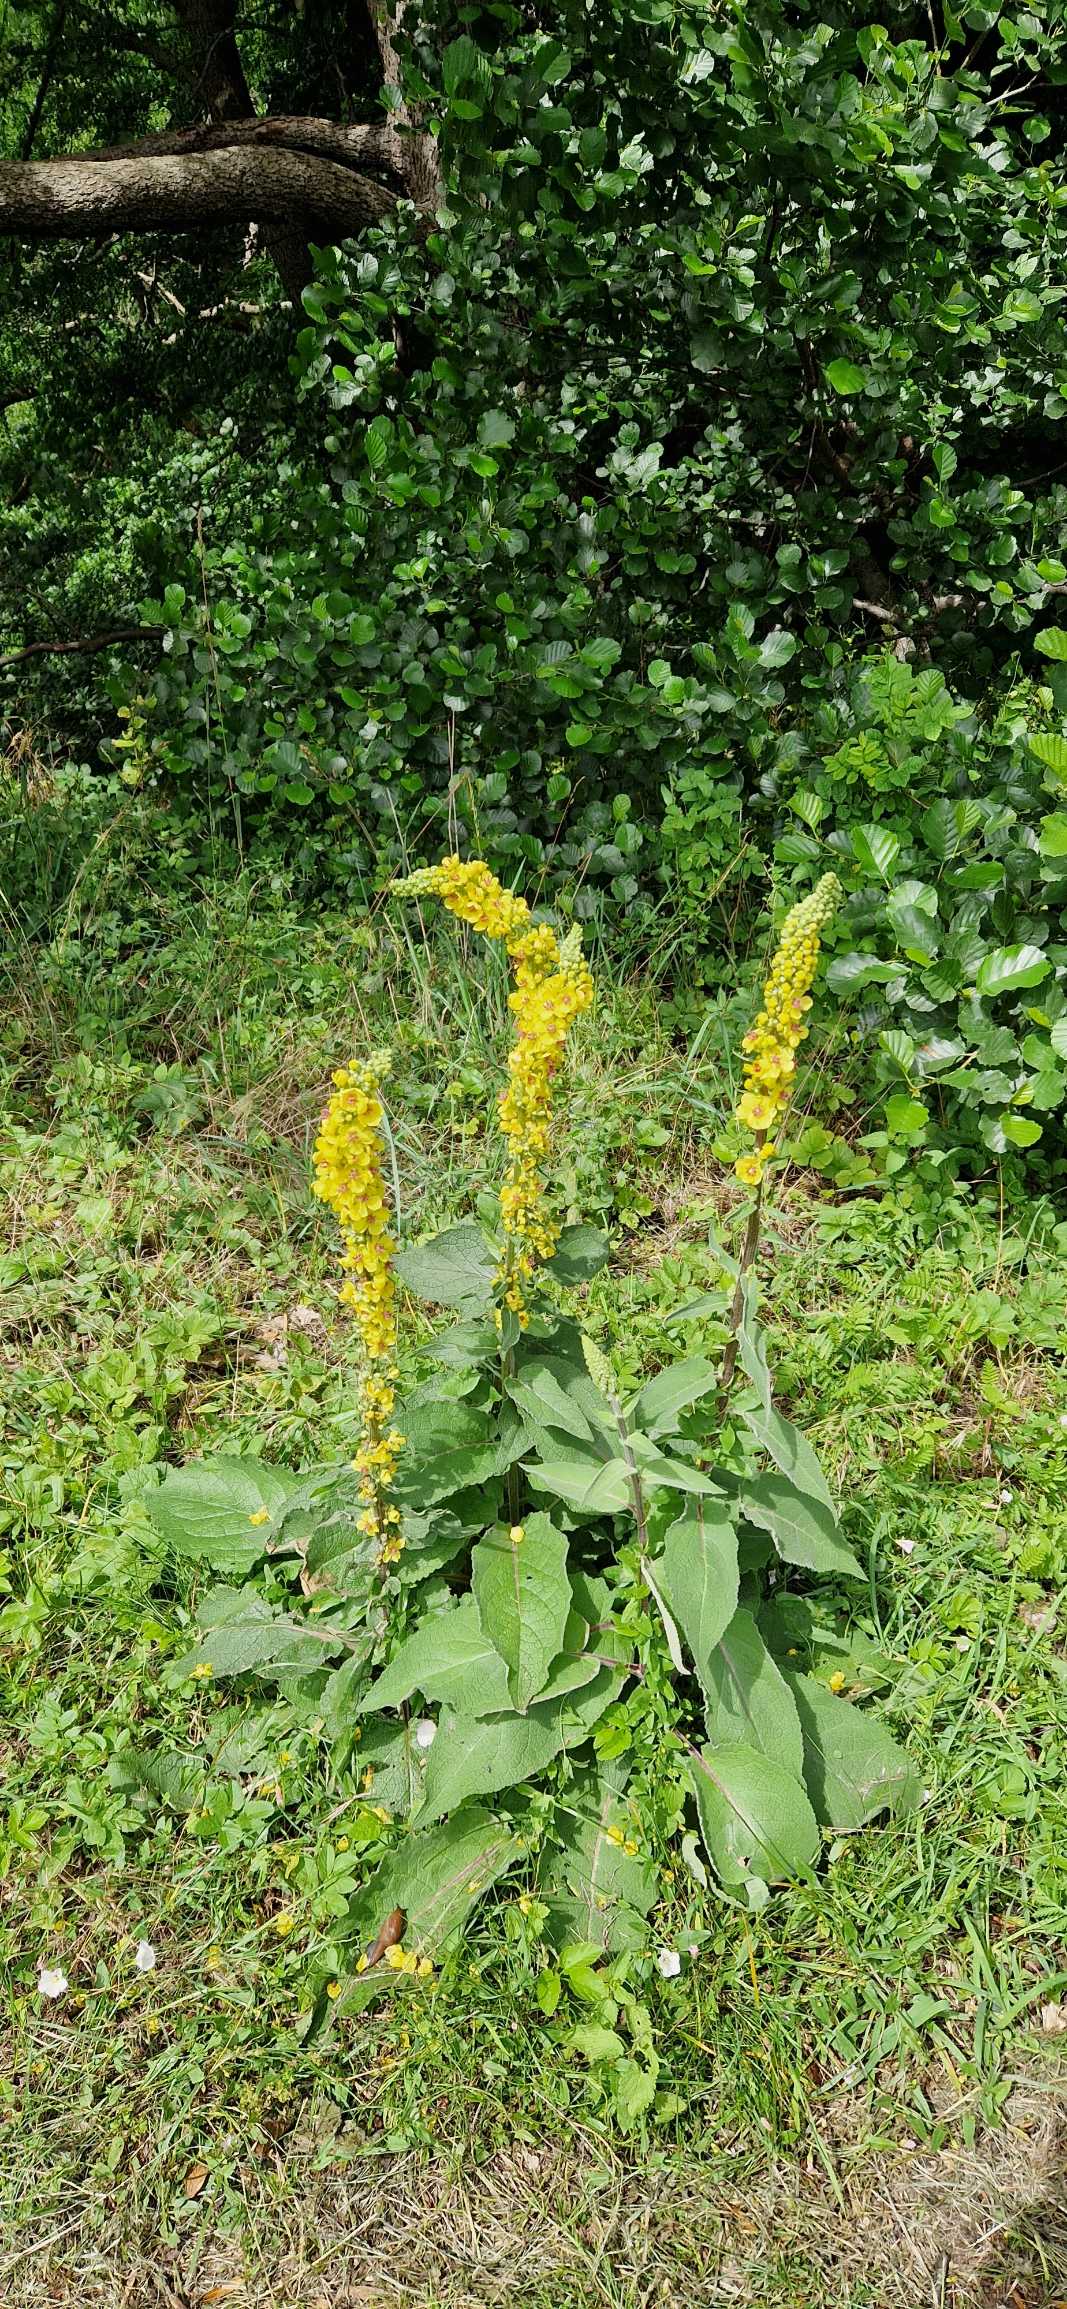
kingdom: Plantae
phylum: Tracheophyta
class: Magnoliopsida
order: Lamiales
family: Scrophulariaceae
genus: Verbascum
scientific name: Verbascum nigrum
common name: Mørk kongelys
